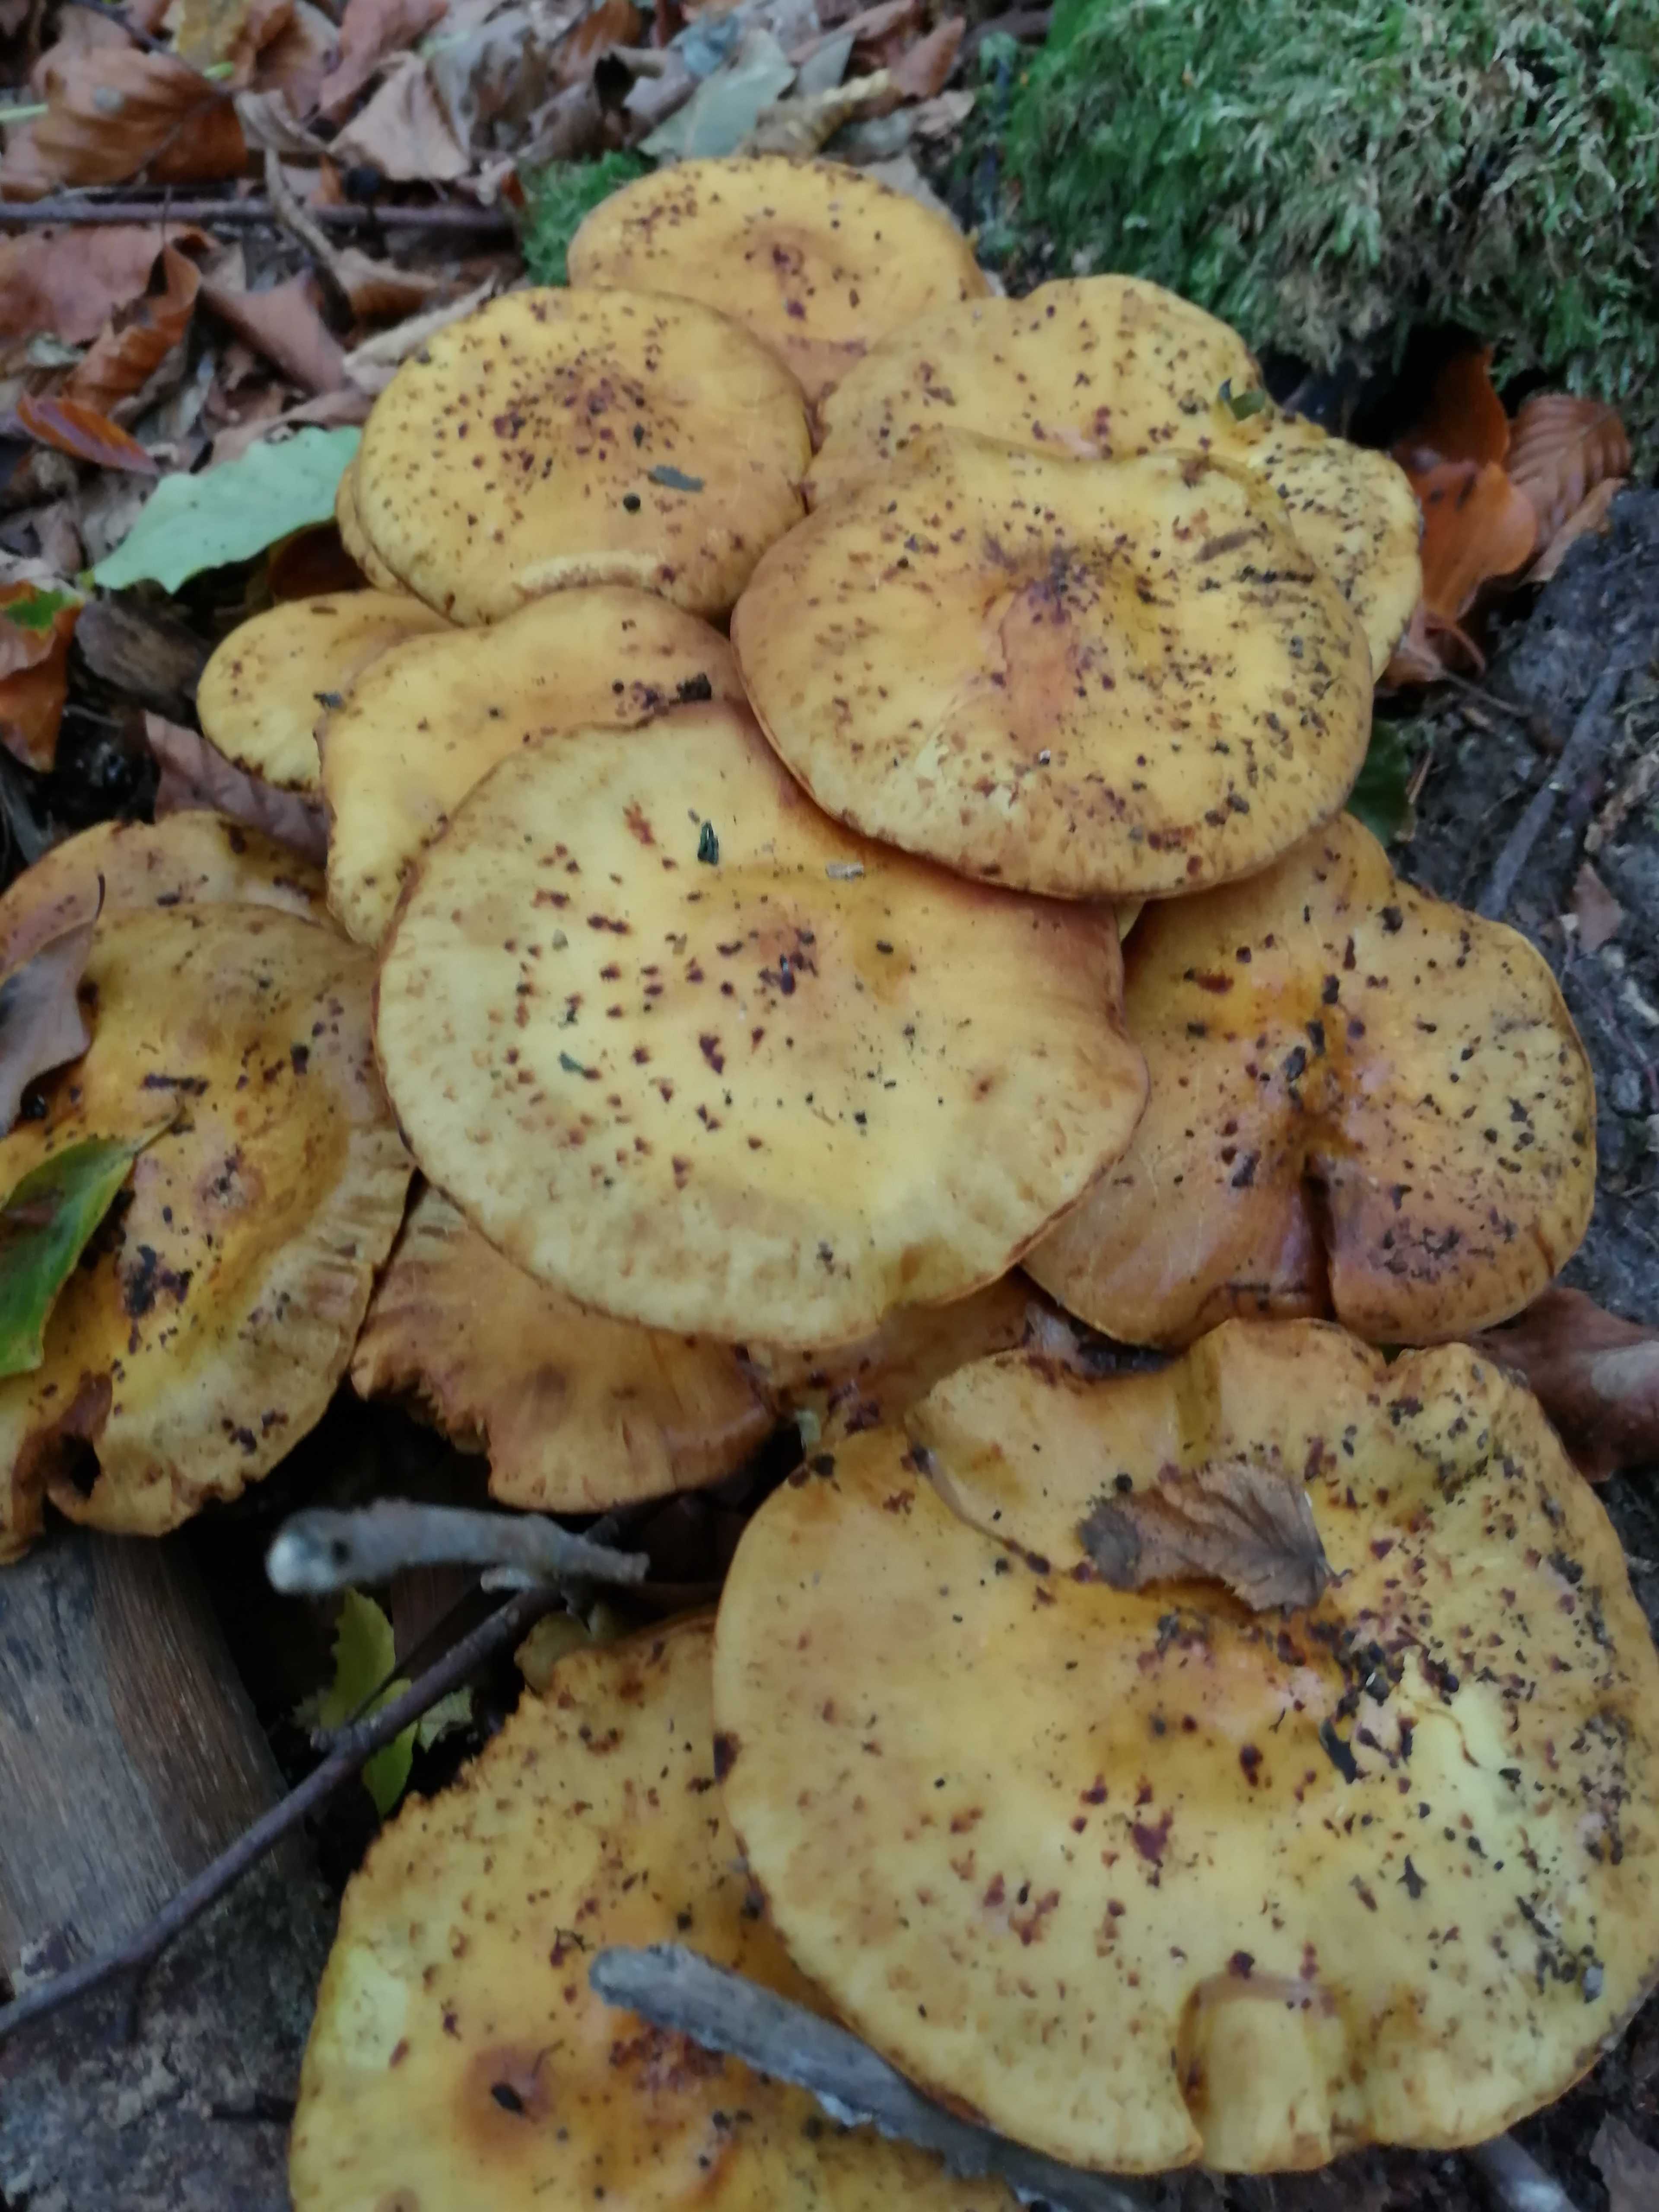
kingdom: Fungi
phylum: Basidiomycota
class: Agaricomycetes
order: Agaricales
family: Strophariaceae
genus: Pholiota
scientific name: Pholiota
